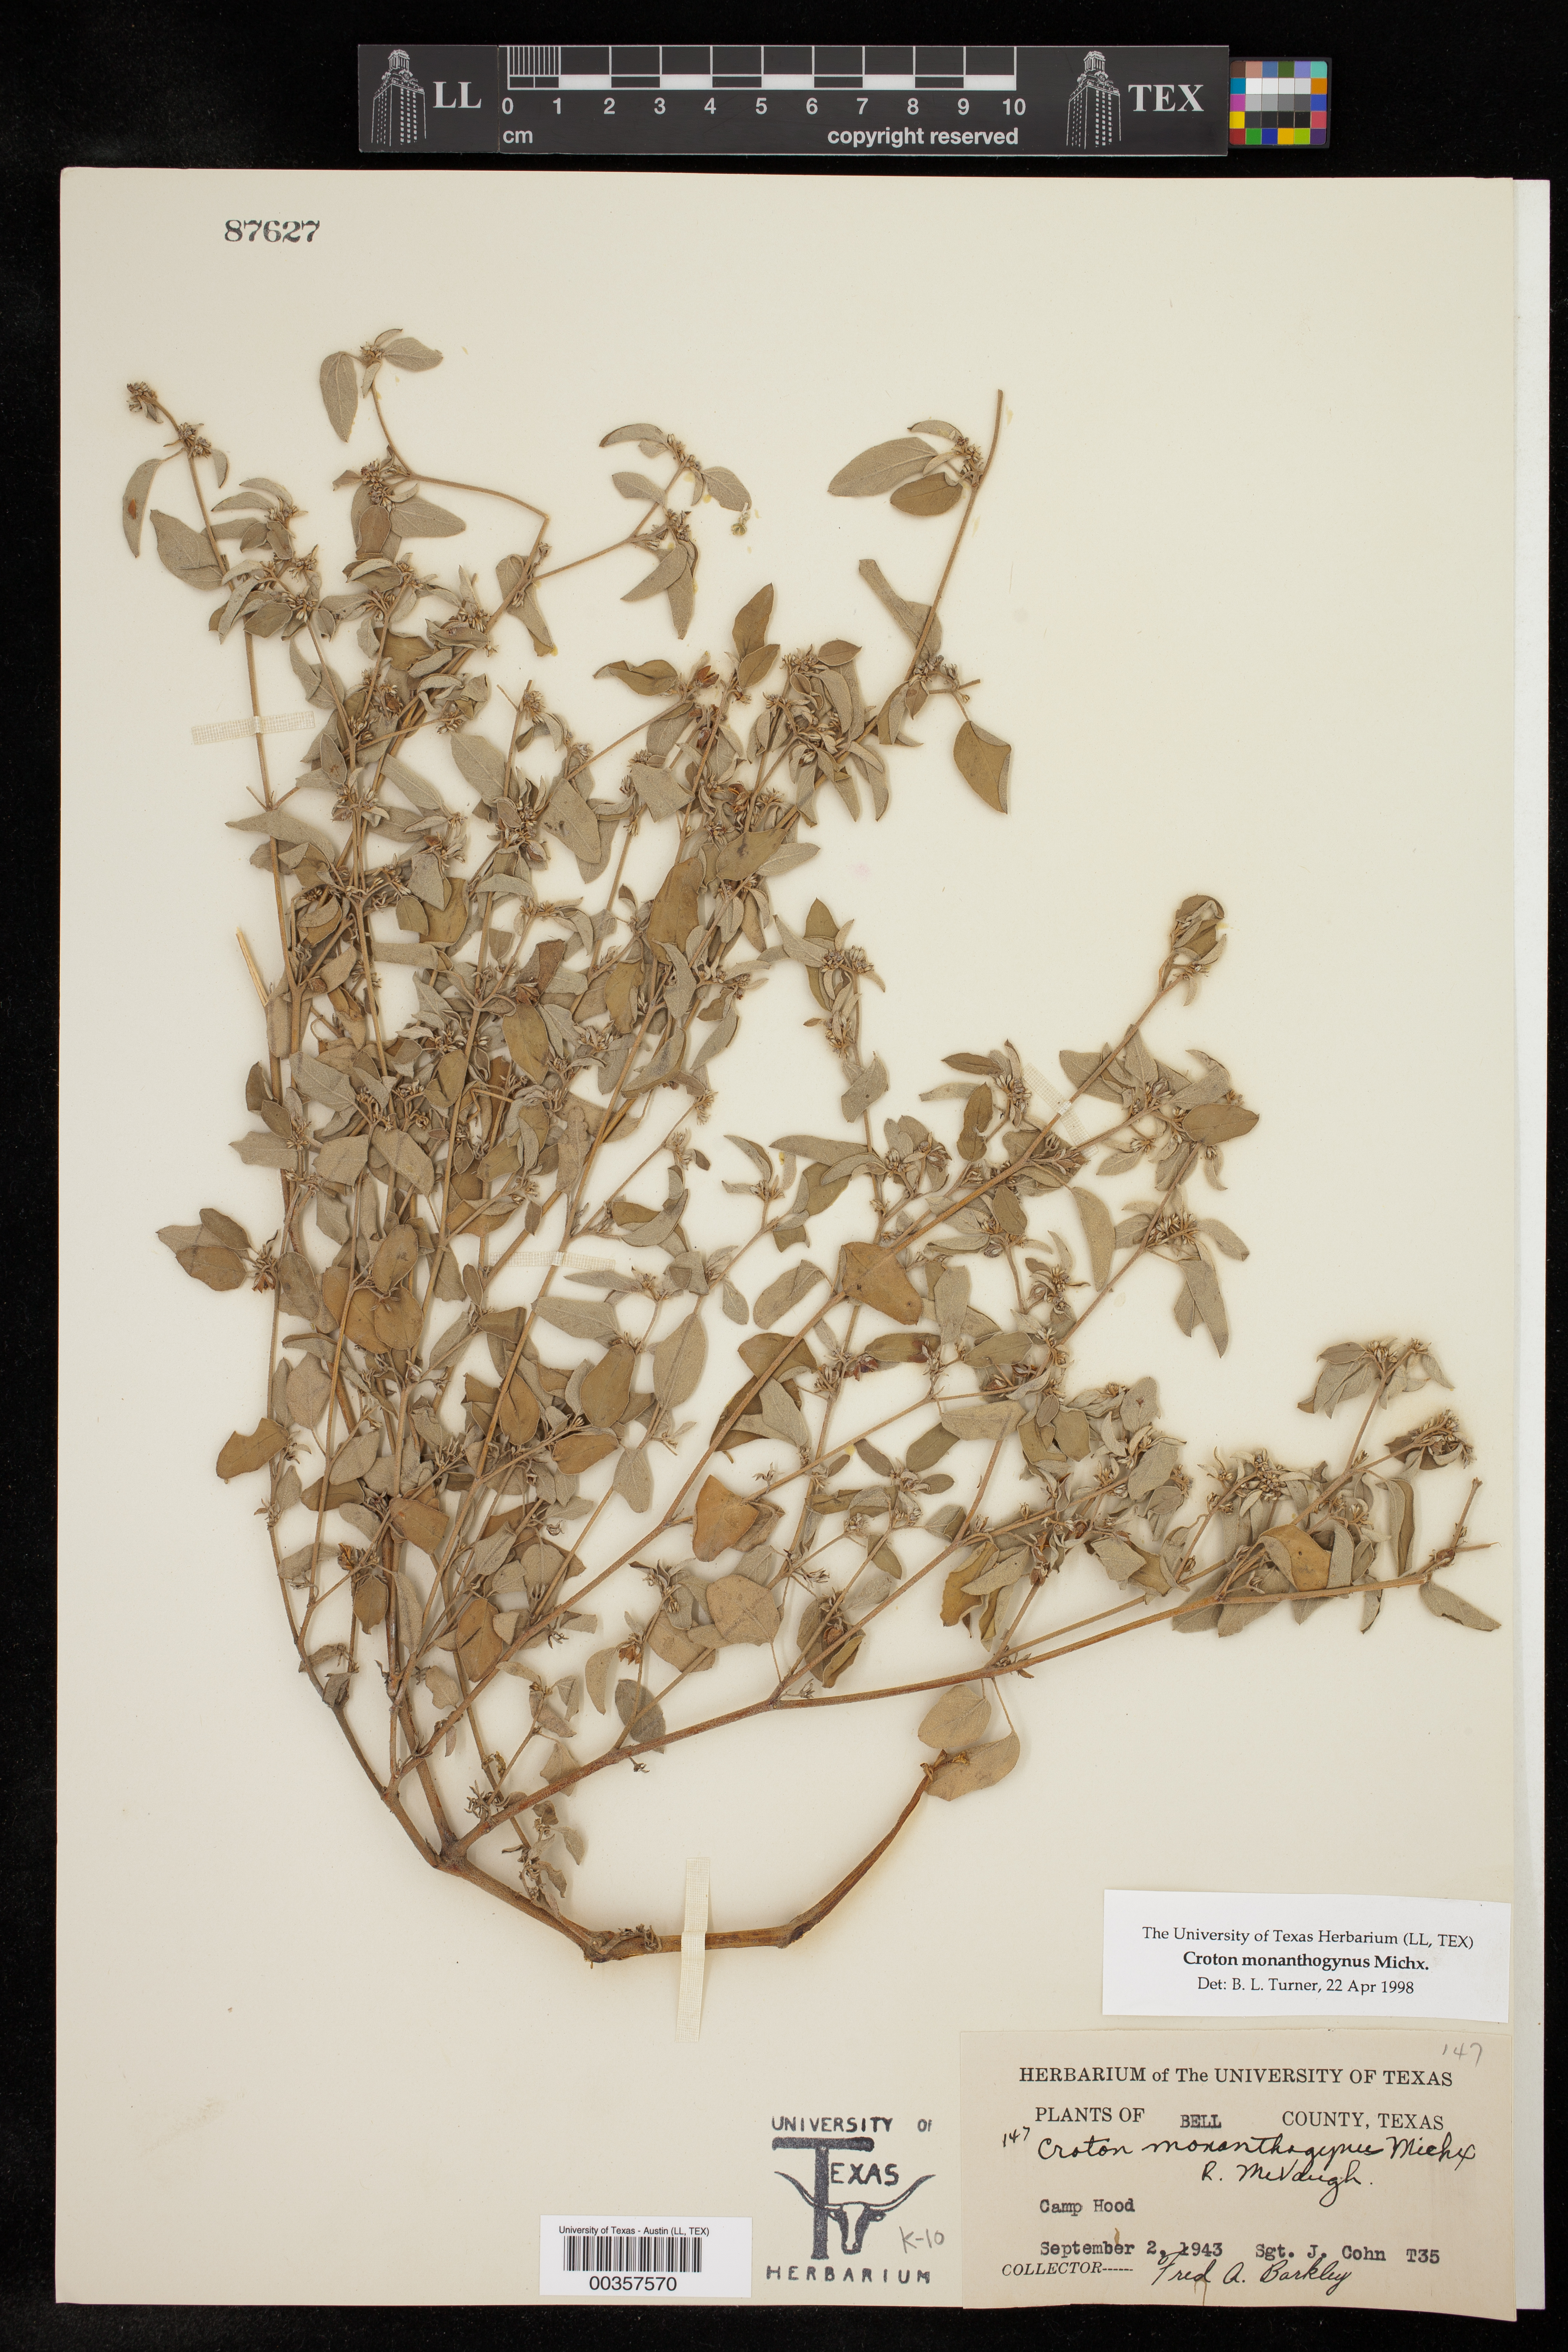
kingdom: Plantae
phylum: Tracheophyta
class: Magnoliopsida
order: Malpighiales
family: Euphorbiaceae
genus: Croton
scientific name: Croton monanthogynus
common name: One-seed croton
